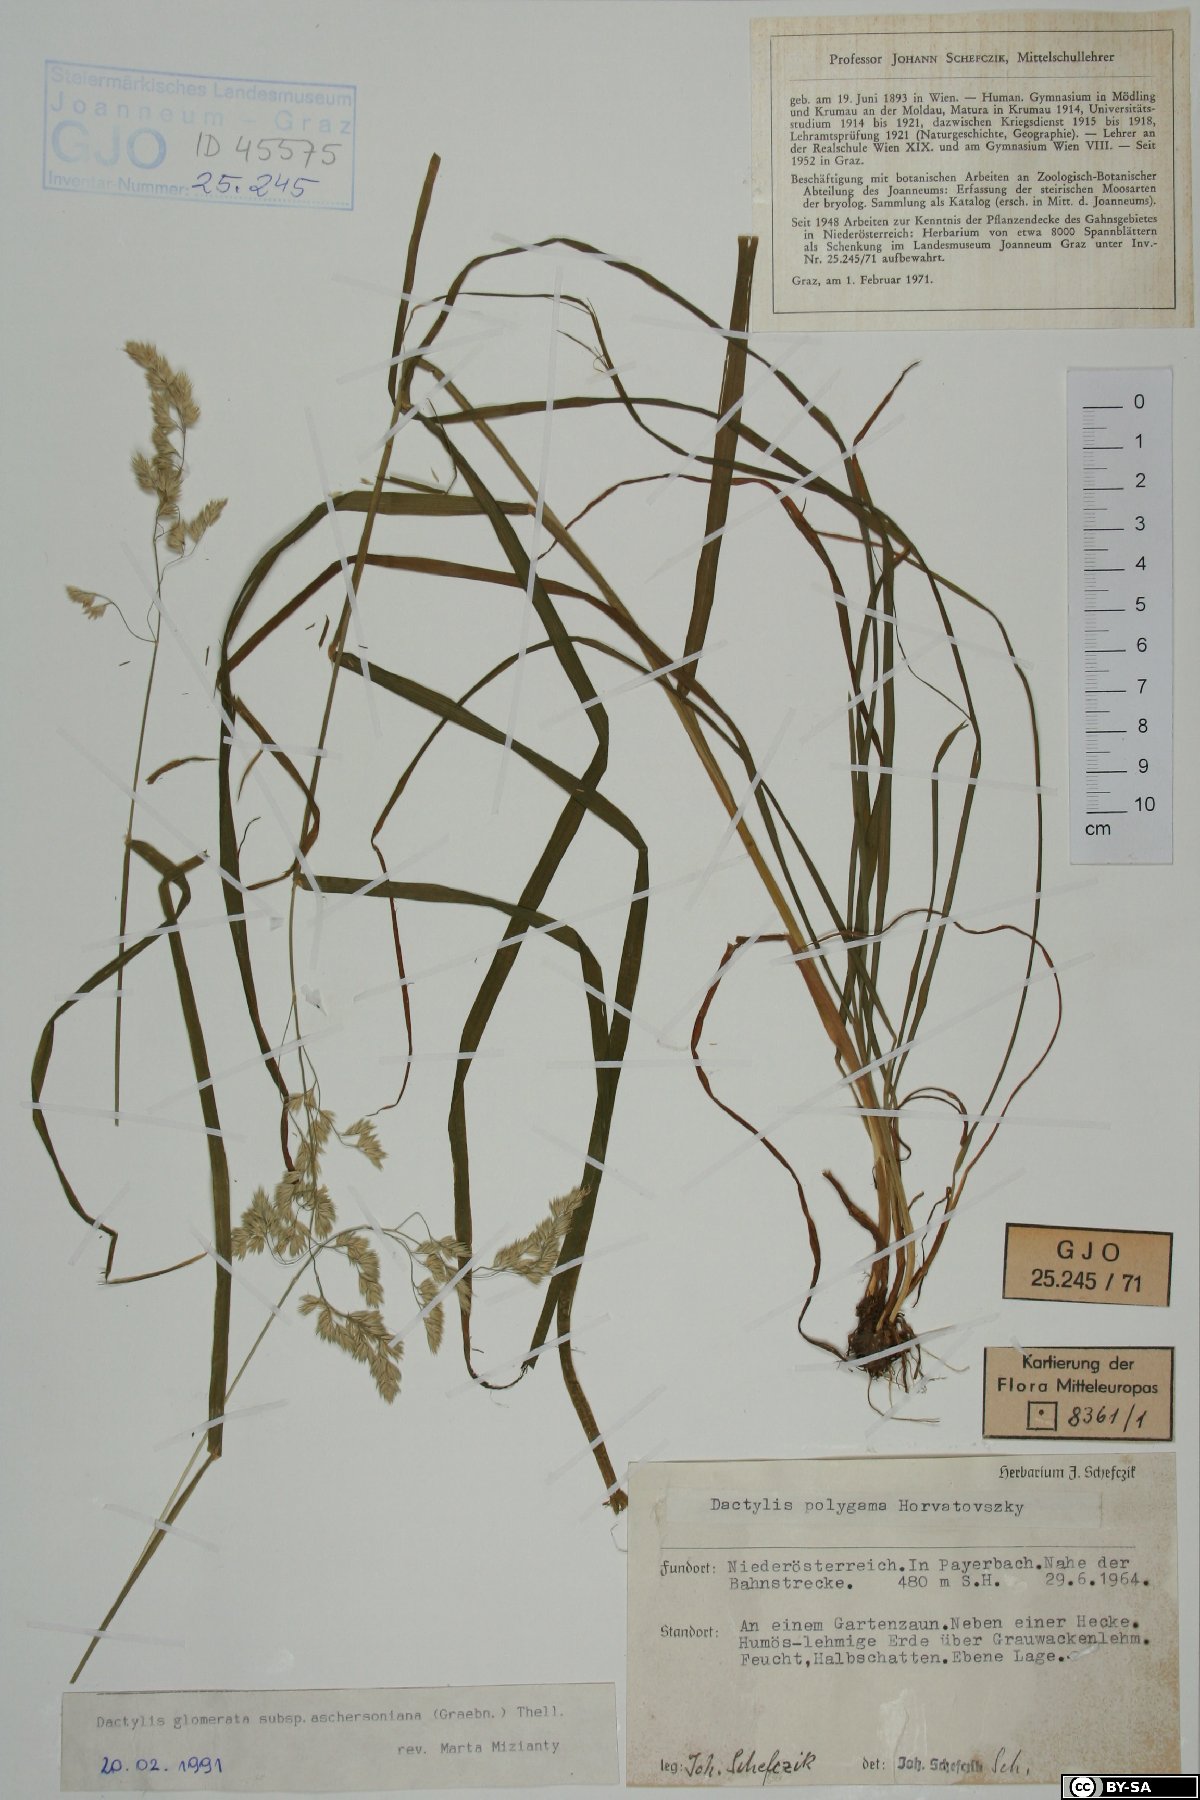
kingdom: Plantae
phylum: Tracheophyta
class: Liliopsida
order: Poales
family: Poaceae
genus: Dactylis
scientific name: Dactylis glomerata
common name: Orchardgrass
